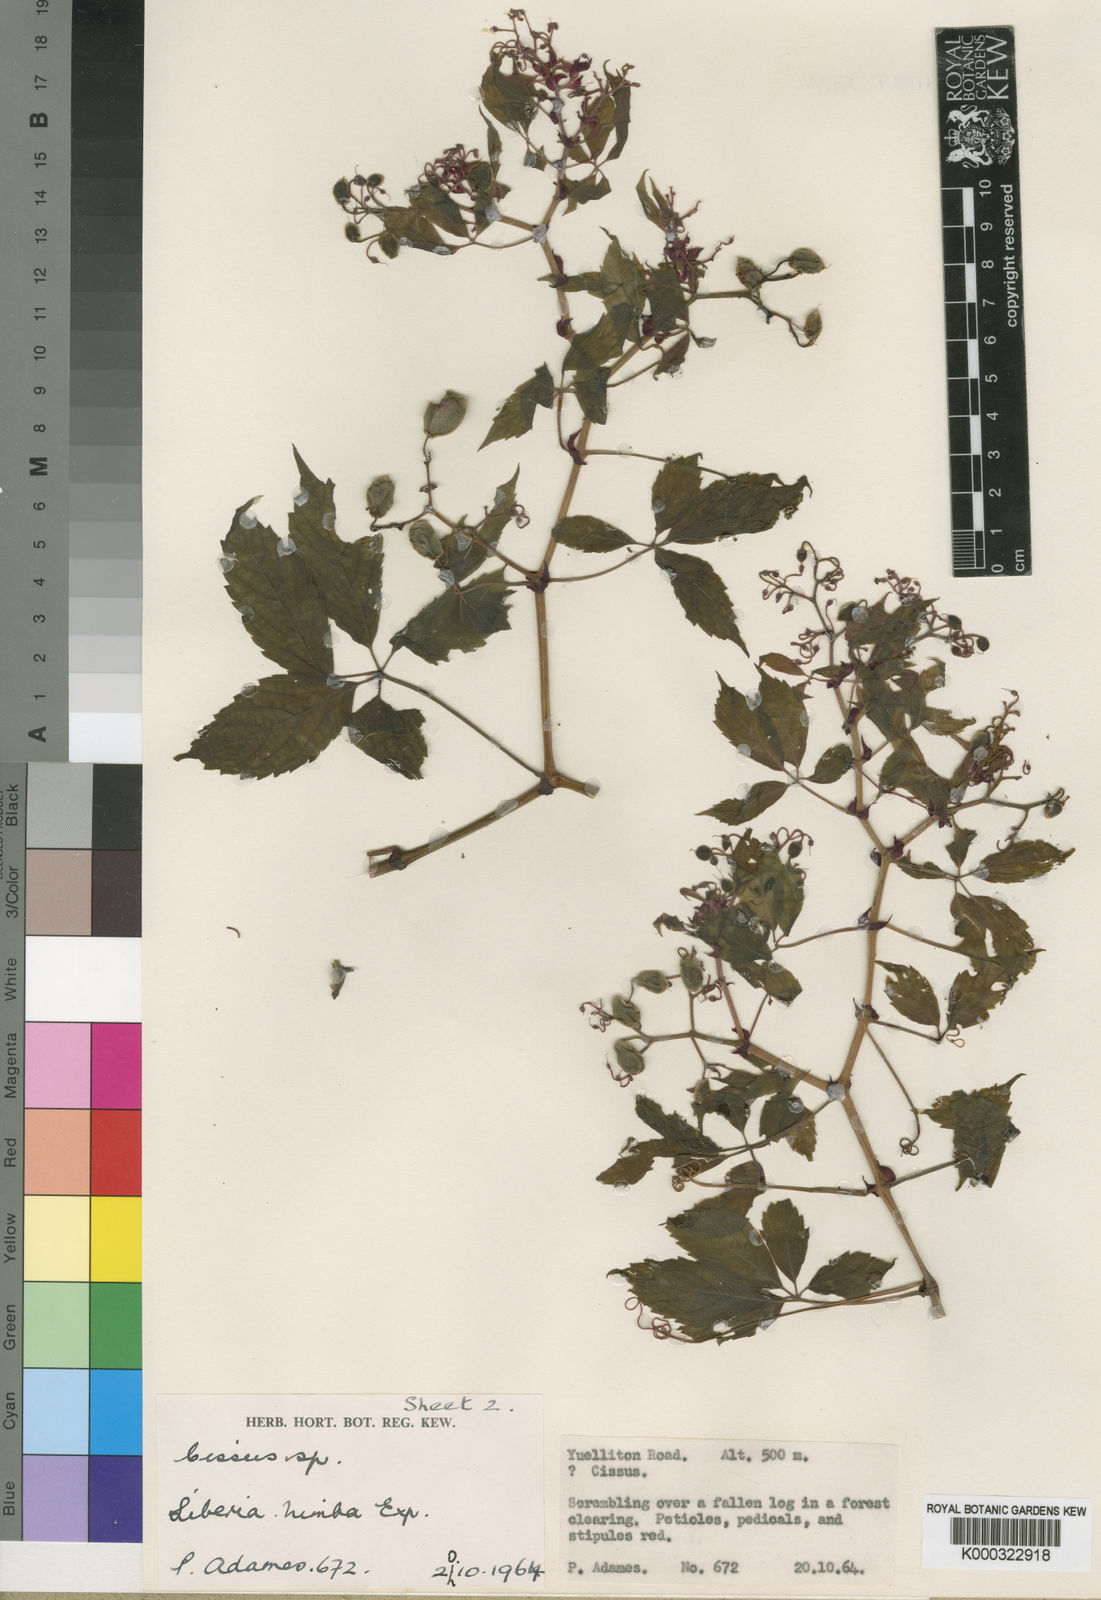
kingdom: Plantae
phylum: Tracheophyta
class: Magnoliopsida
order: Vitales
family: Vitaceae
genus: Cyphostemma
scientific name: Cyphostemma adamii
